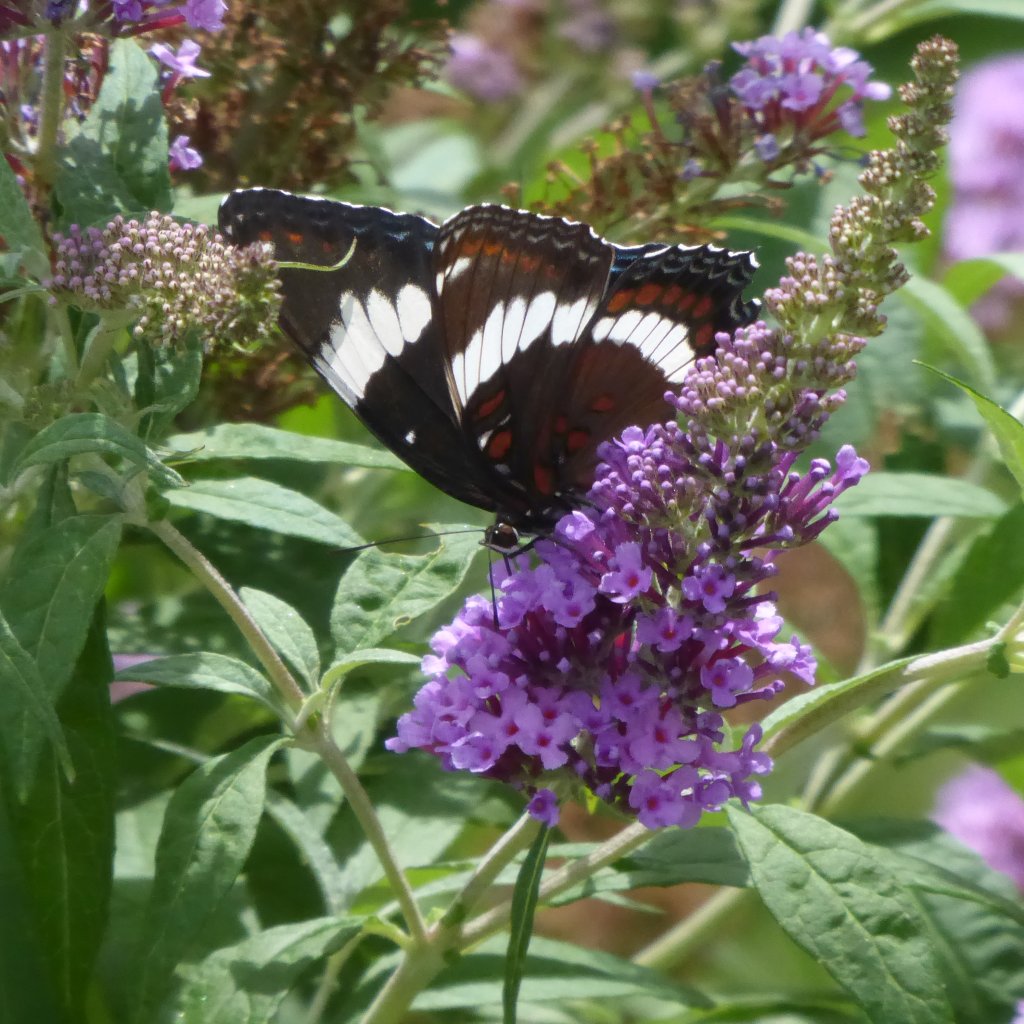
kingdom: Animalia
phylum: Arthropoda
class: Insecta
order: Lepidoptera
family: Nymphalidae
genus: Limenitis
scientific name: Limenitis arthemis
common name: Red-spotted Admiral
